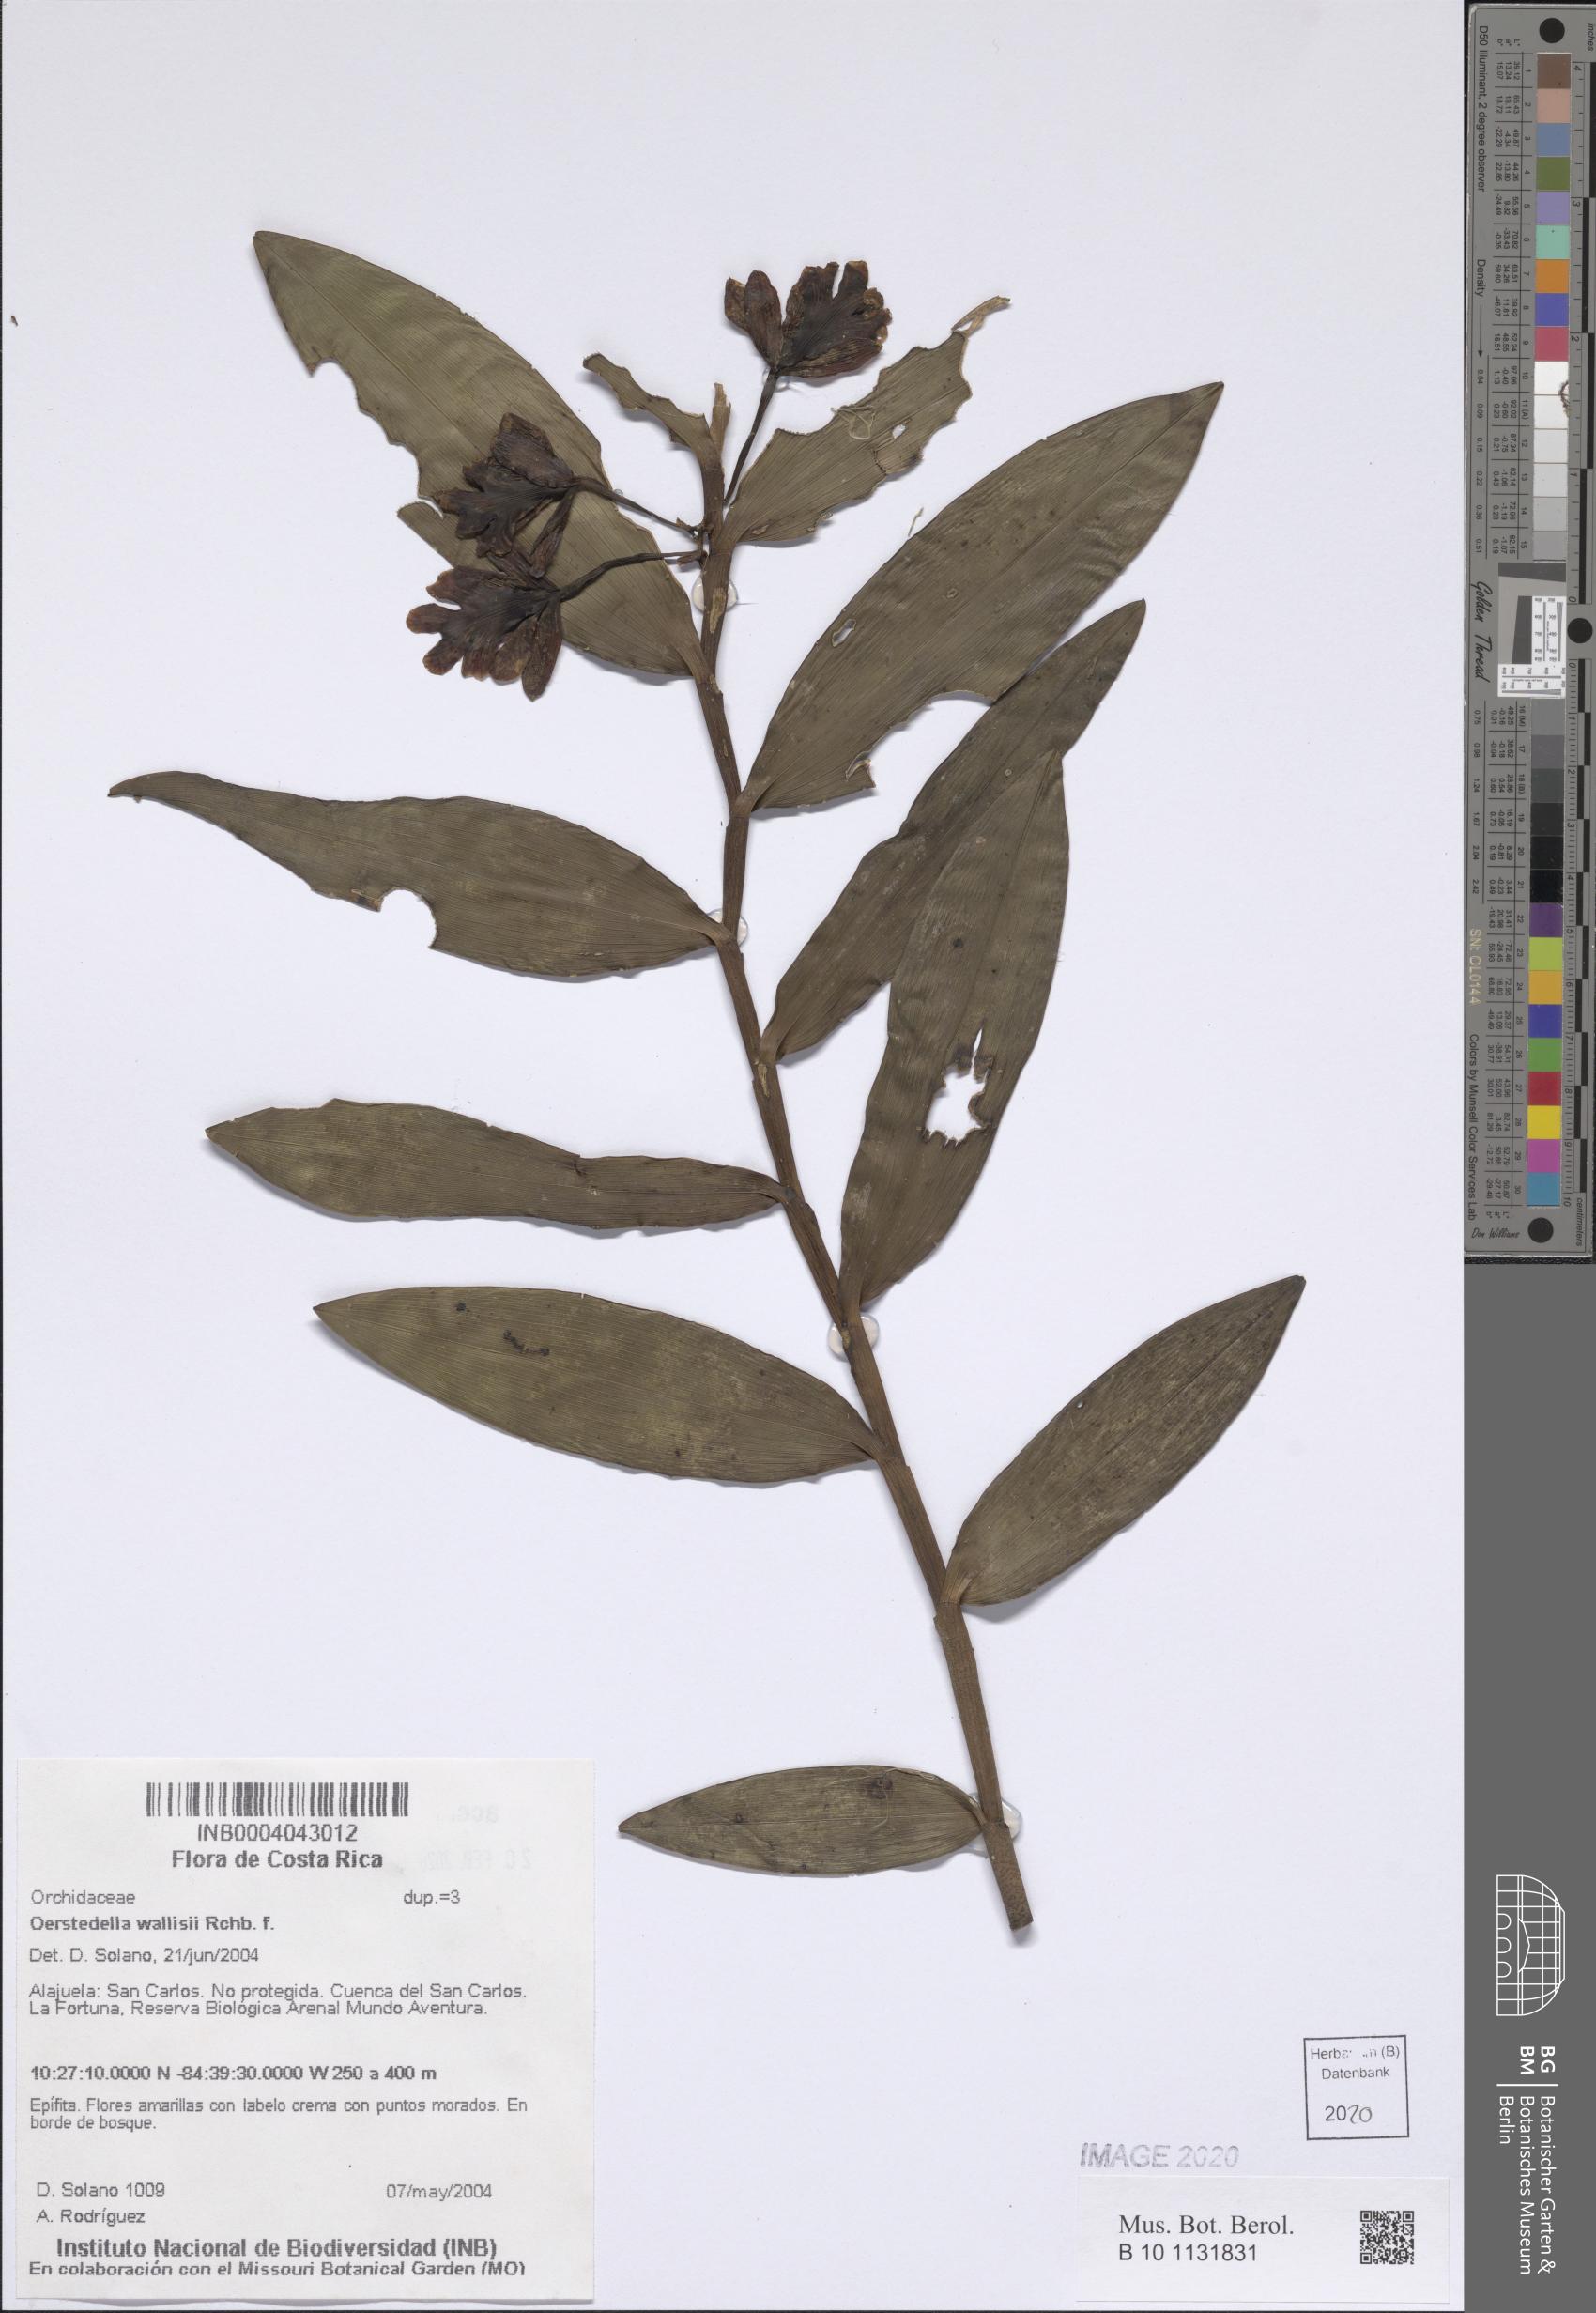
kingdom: Plantae
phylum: Tracheophyta
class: Liliopsida
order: Asparagales
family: Orchidaceae
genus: Epidendrum
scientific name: Epidendrum wallisii
